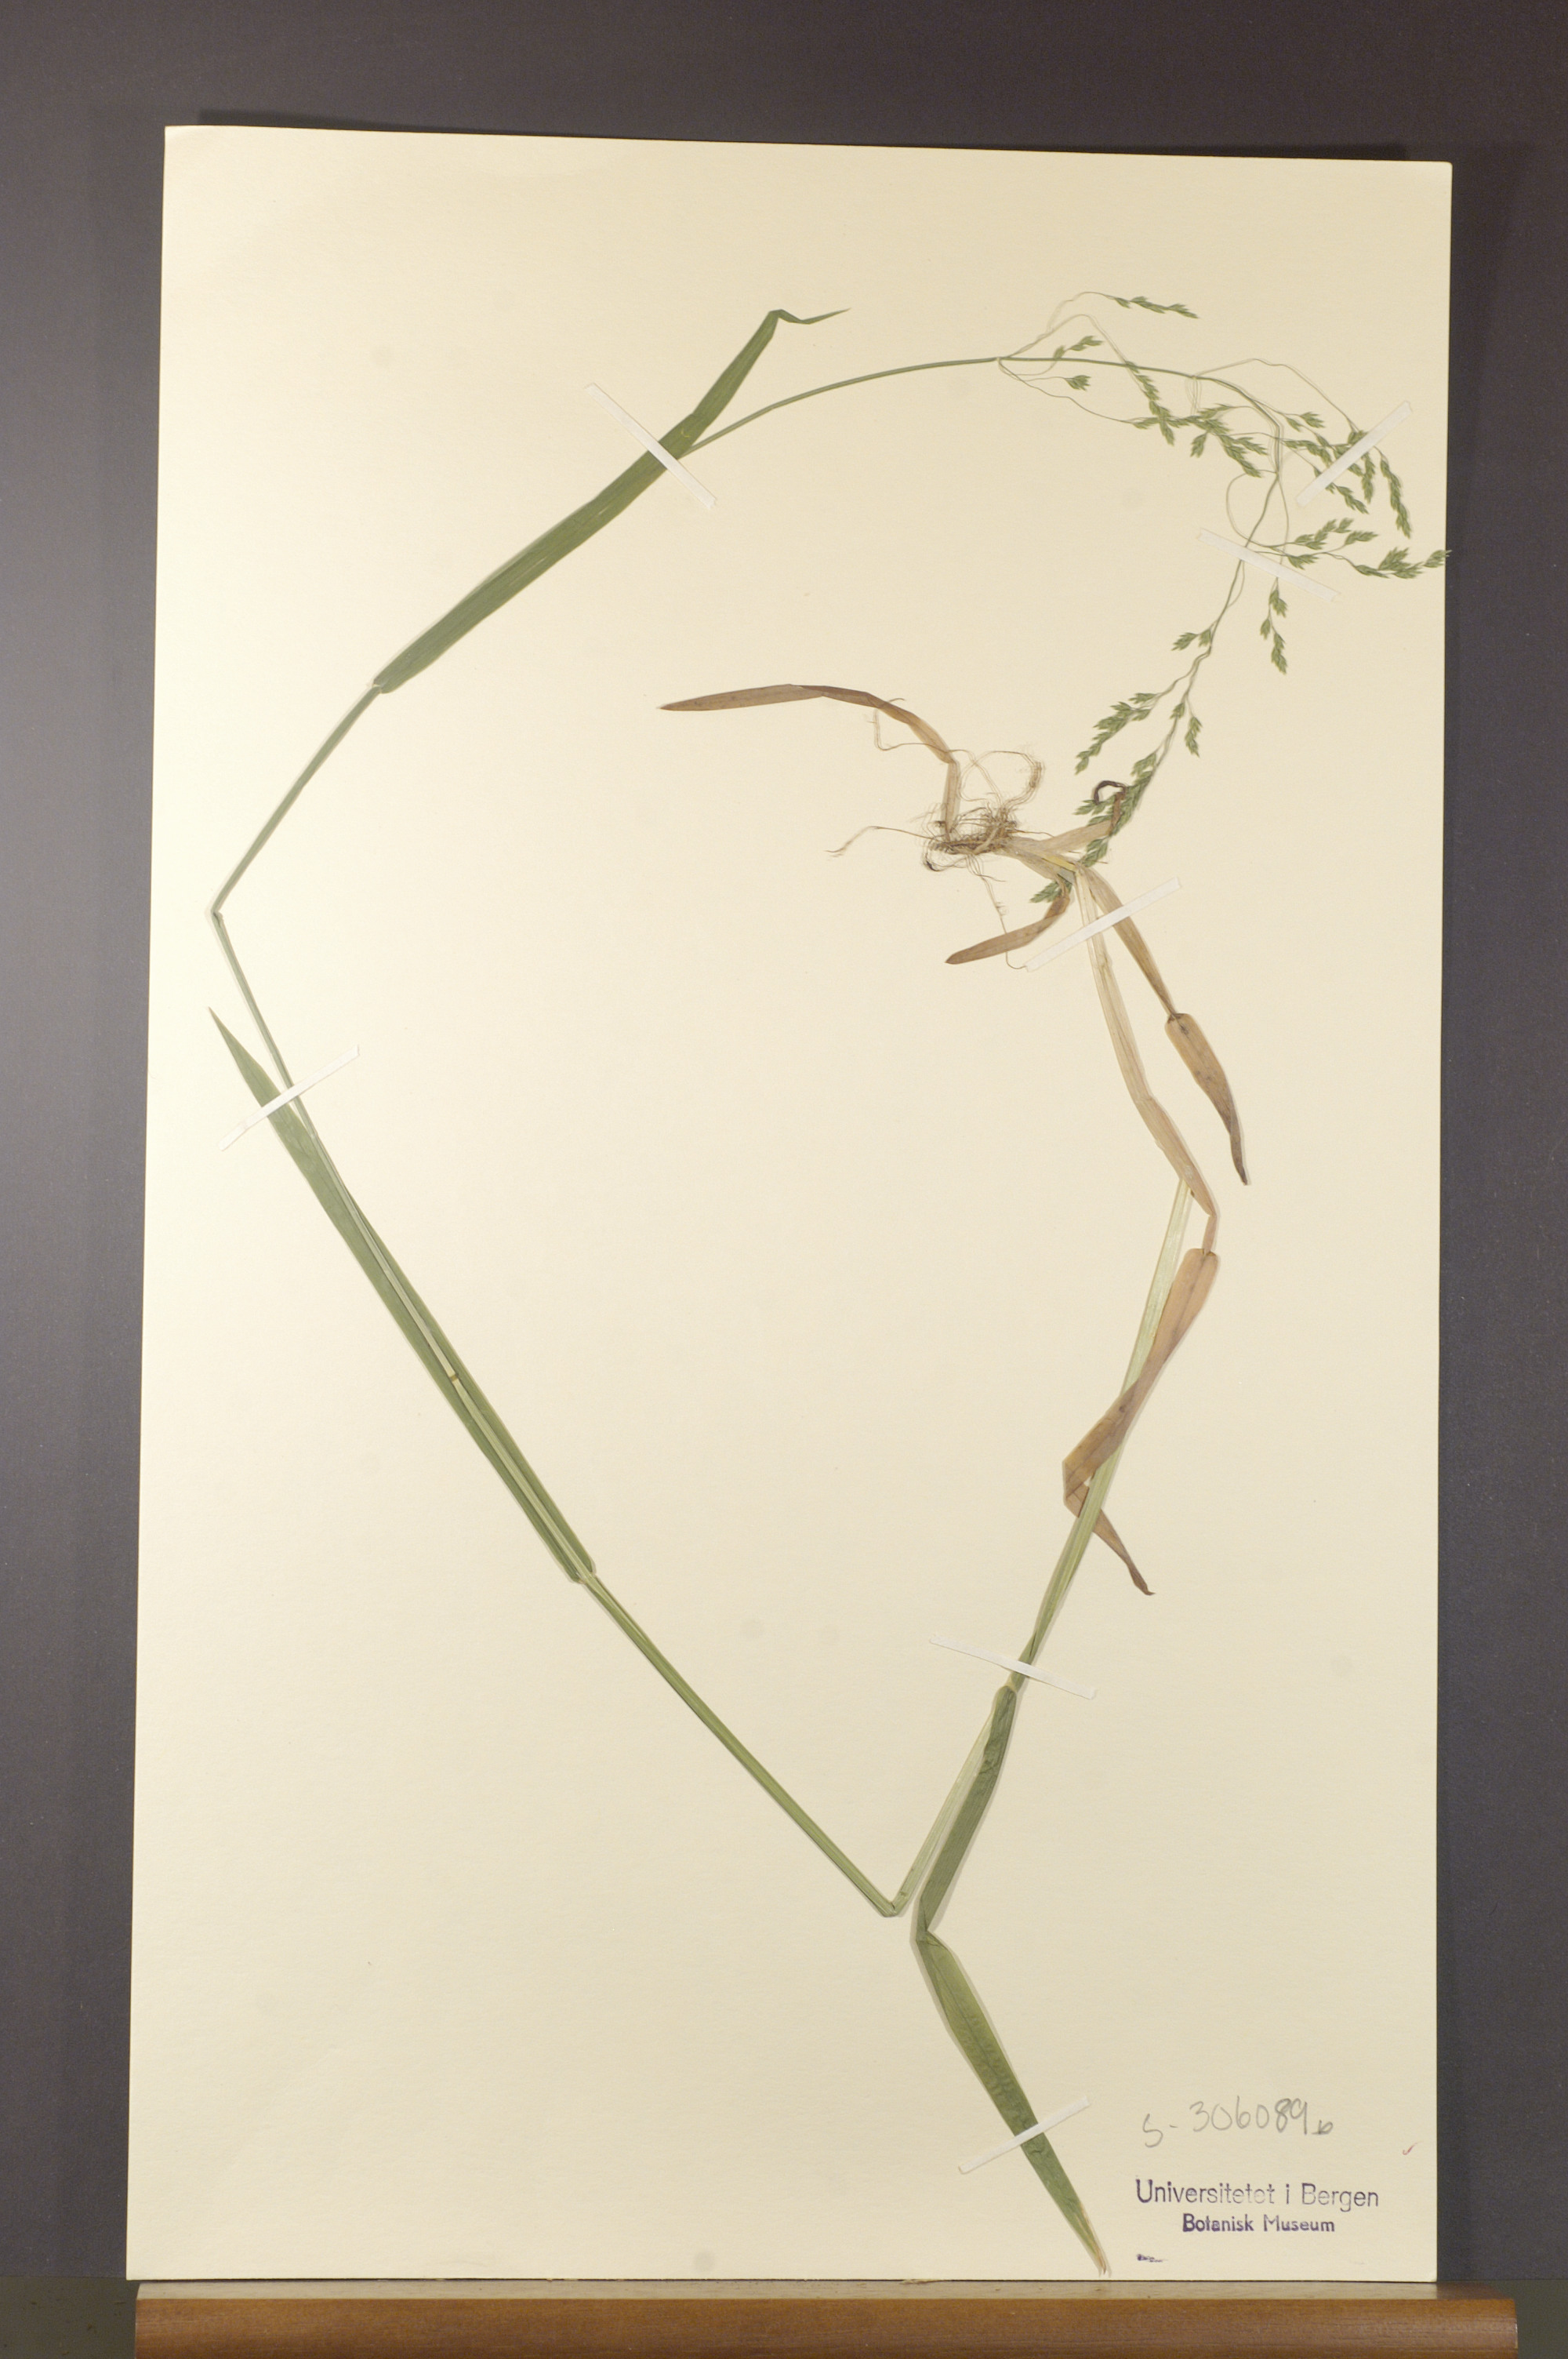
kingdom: Plantae
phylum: Tracheophyta
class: Liliopsida
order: Poales
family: Poaceae
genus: Poa
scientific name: Poa remota
